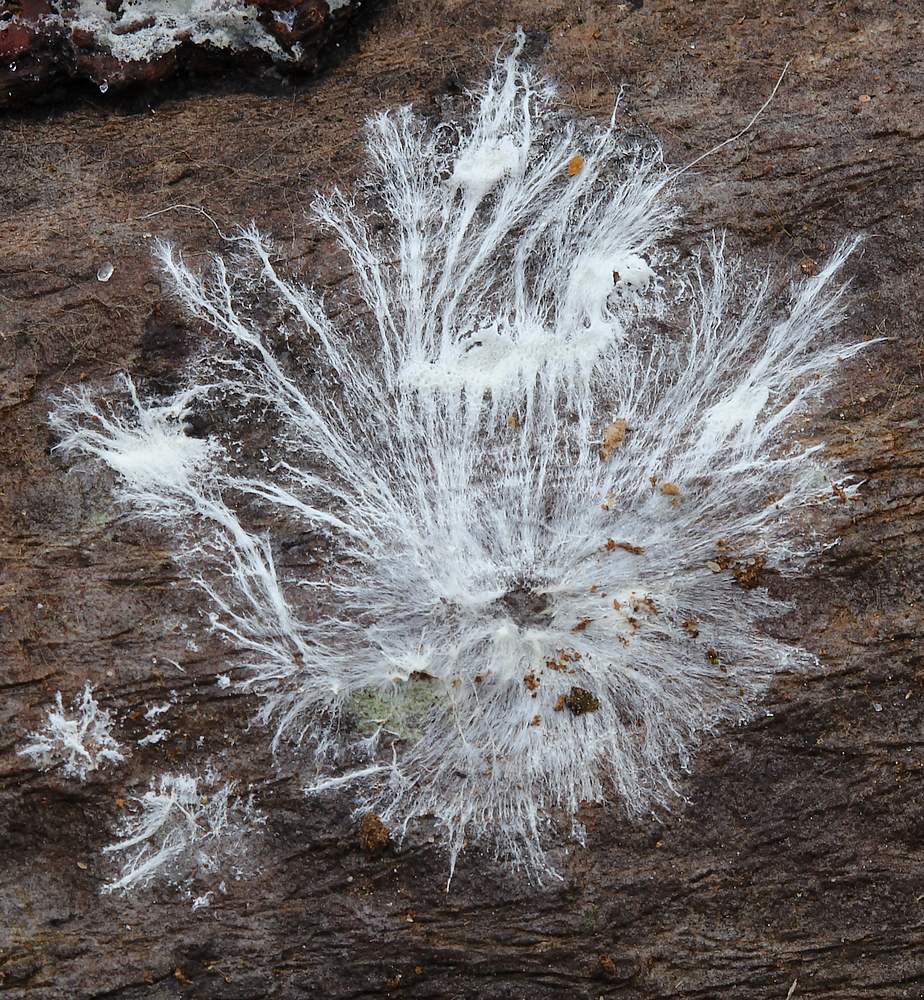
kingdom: Fungi
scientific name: Fungi
